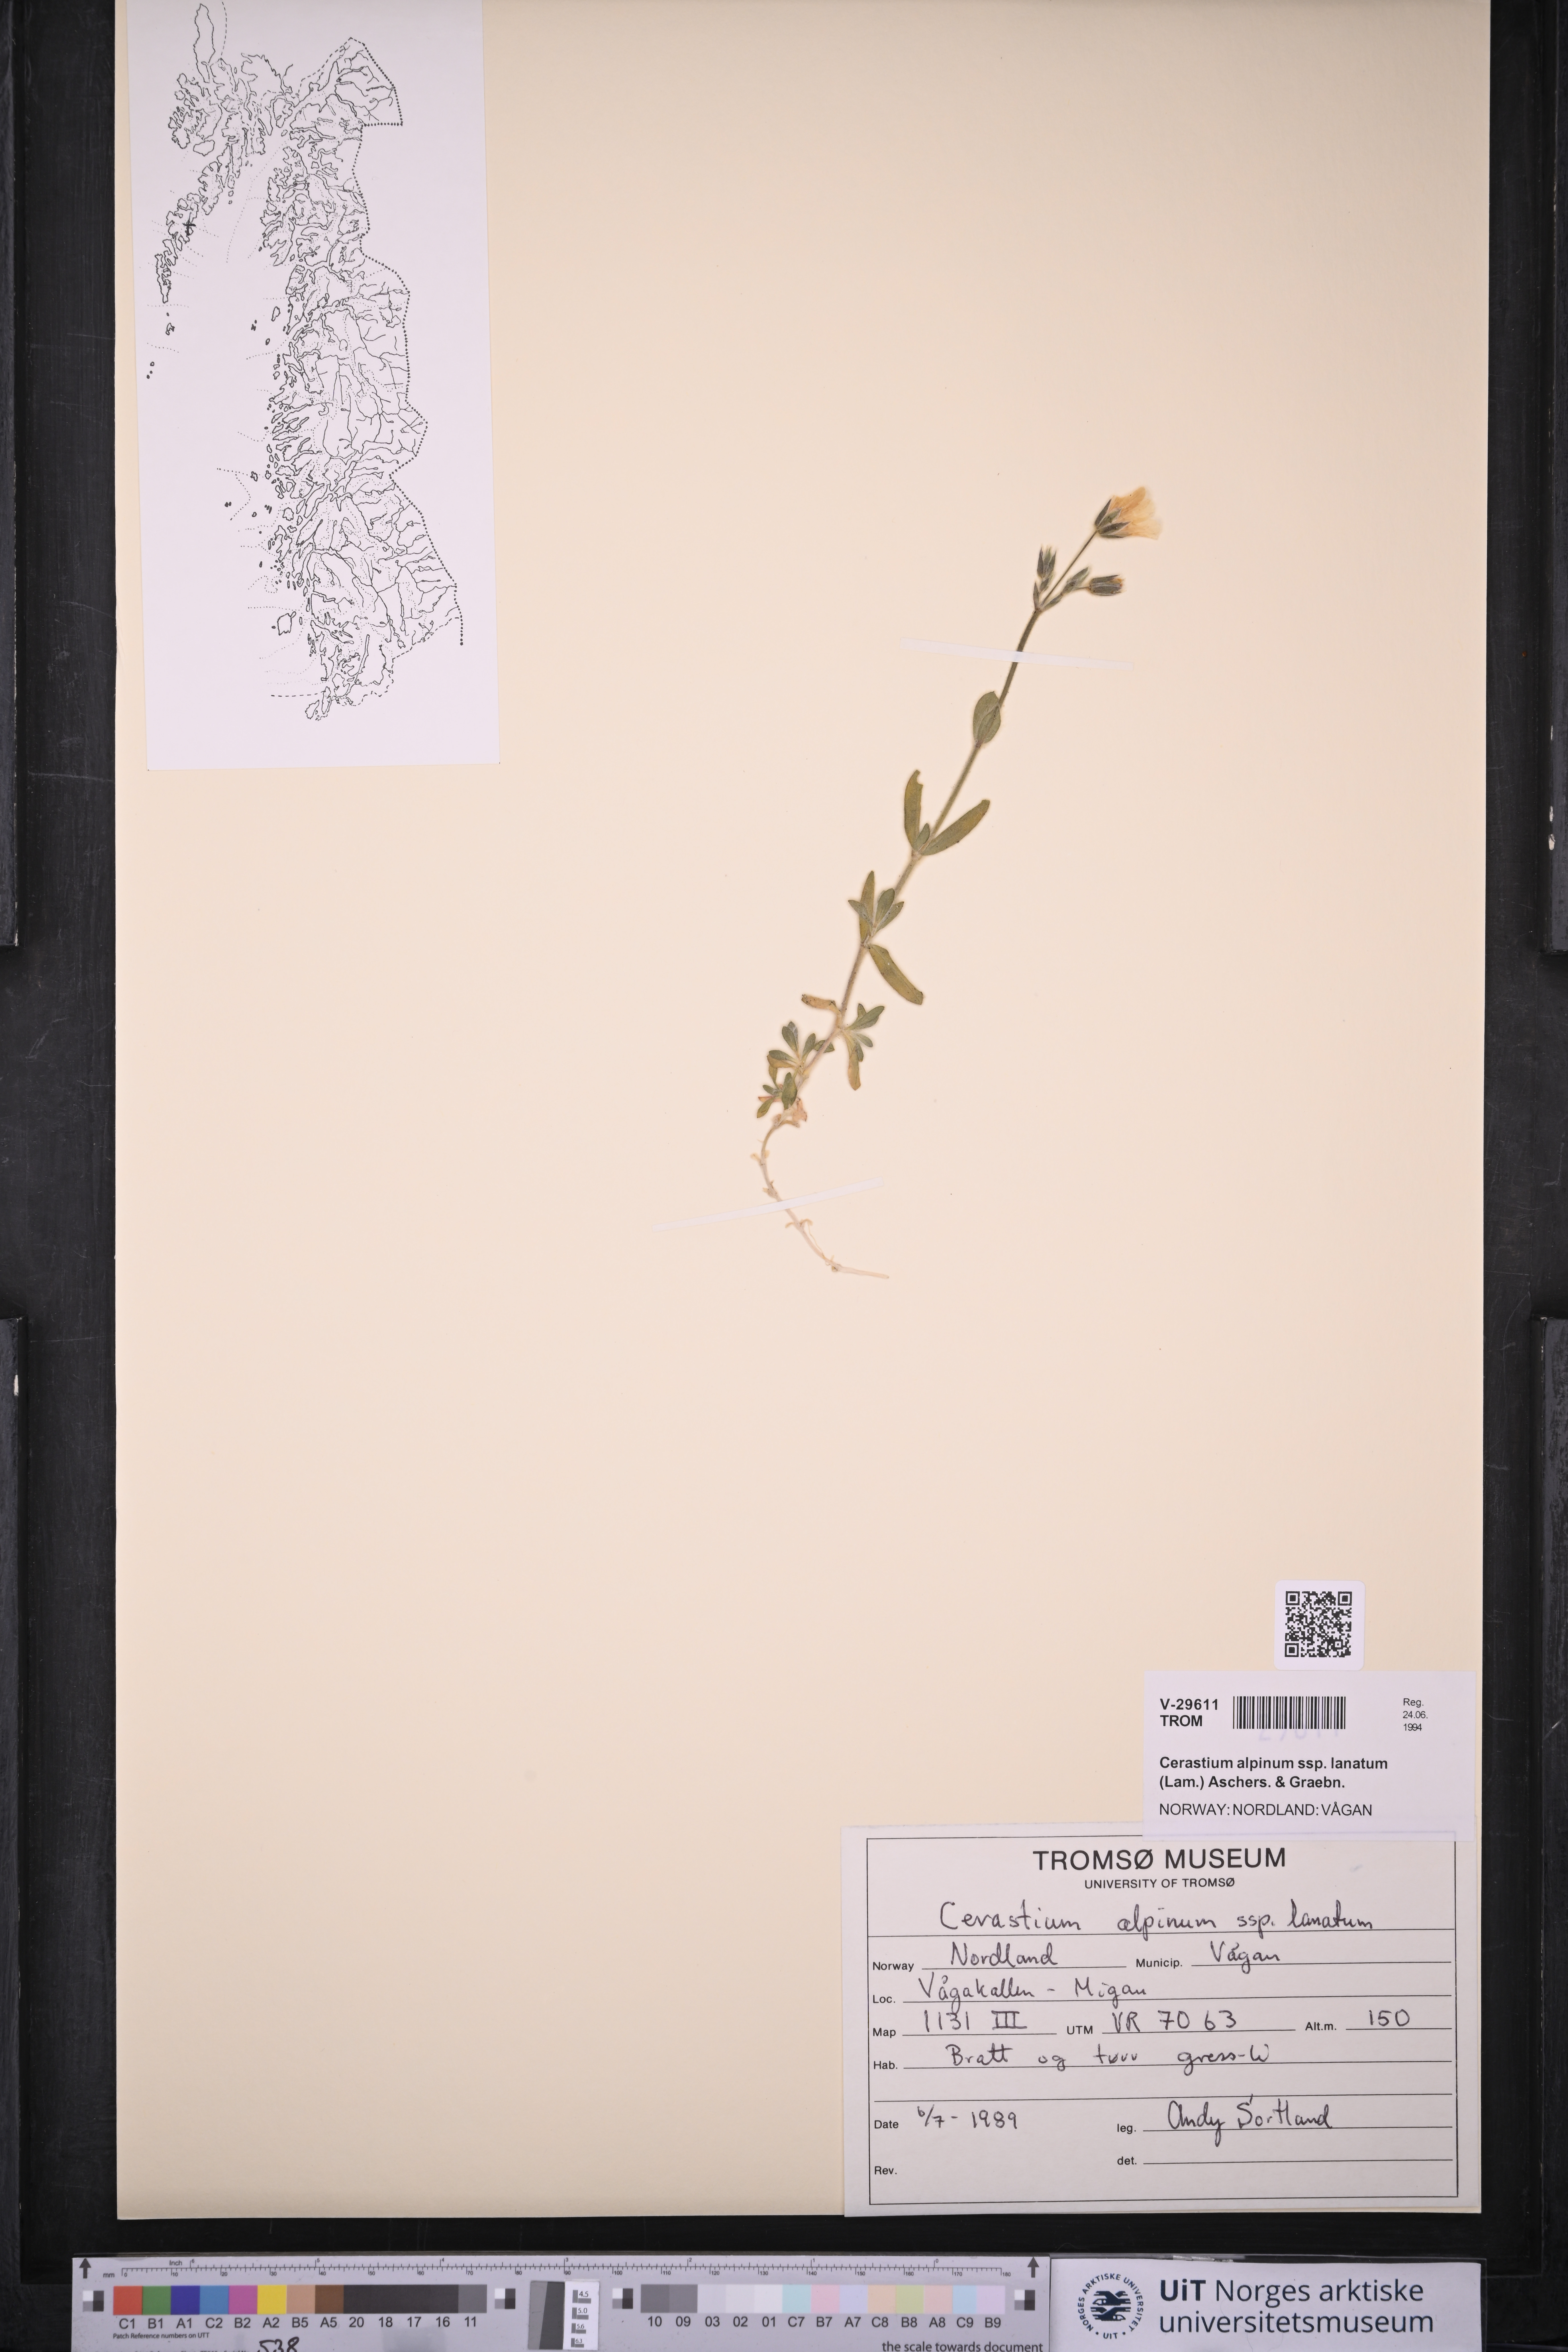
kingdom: Plantae
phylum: Tracheophyta
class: Magnoliopsida
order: Caryophyllales
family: Caryophyllaceae
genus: Cerastium
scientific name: Cerastium alpinum
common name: Alpine mouse-ear
